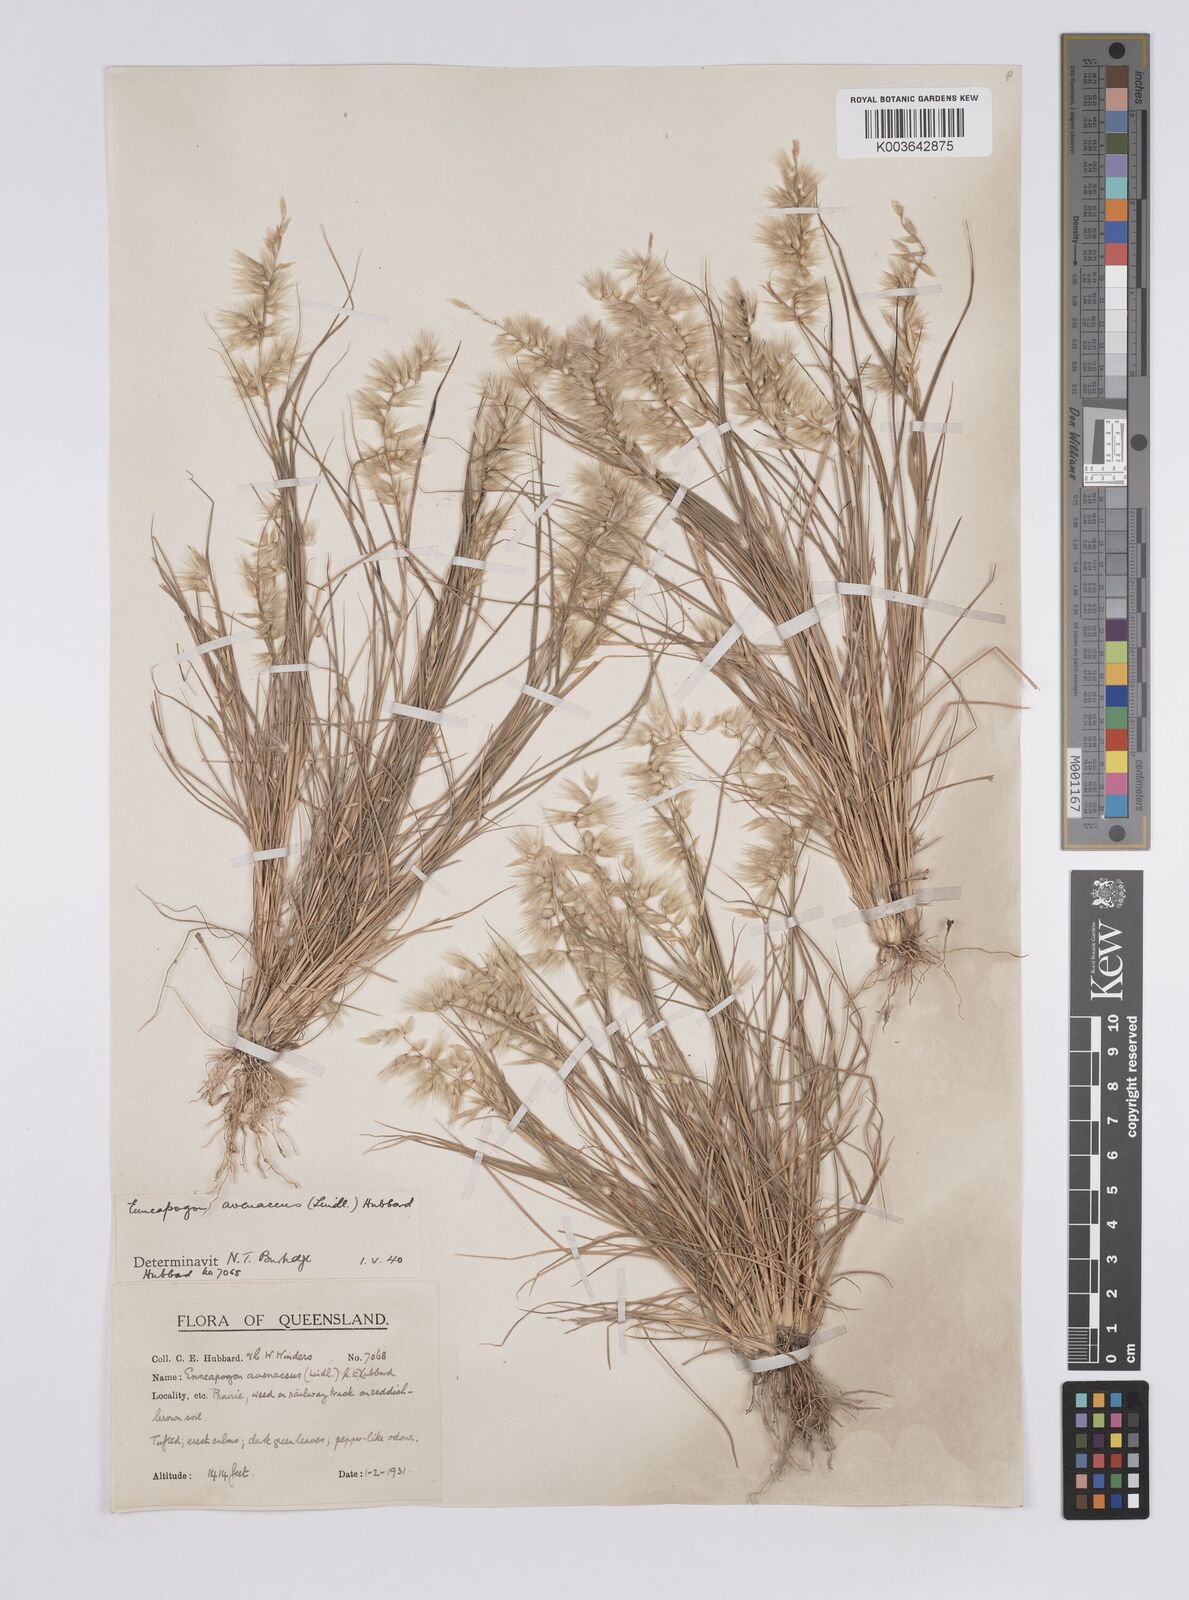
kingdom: Plantae
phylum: Tracheophyta
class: Liliopsida
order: Poales
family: Poaceae
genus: Enneapogon
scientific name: Enneapogon avenaceus
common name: Hairy oat grass
